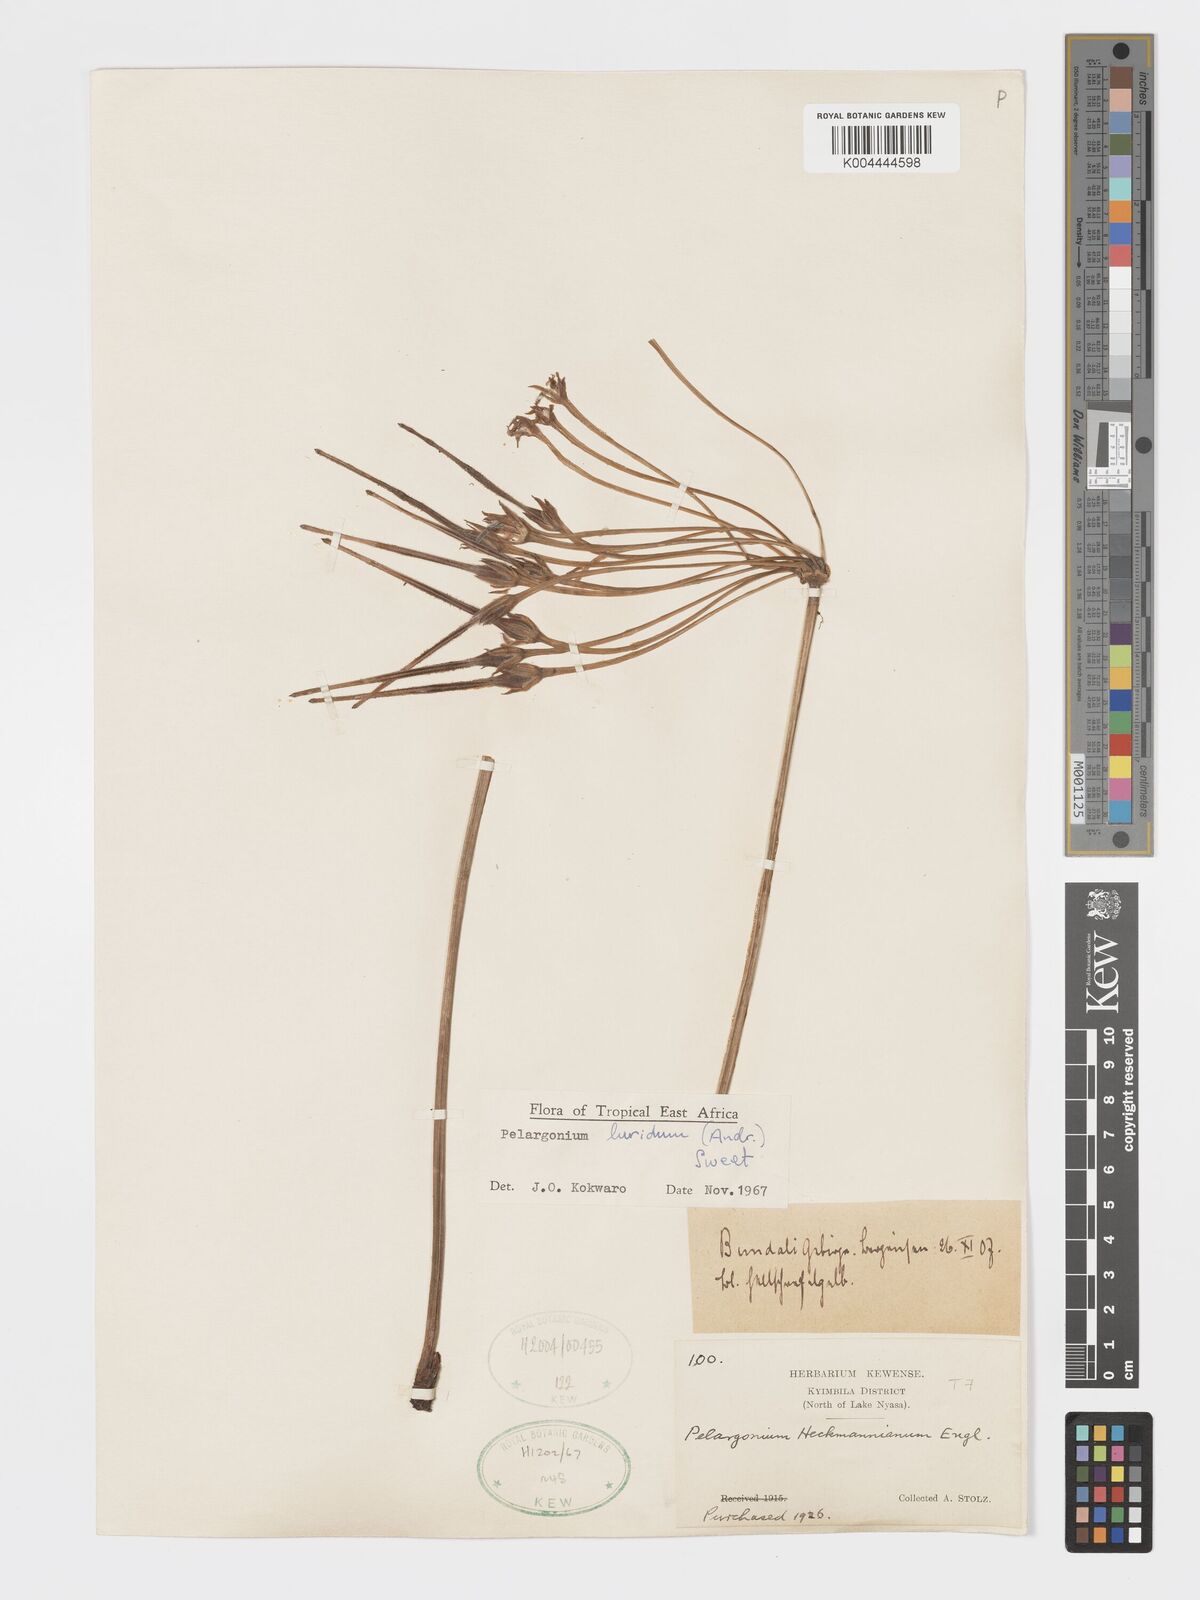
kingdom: Plantae
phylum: Tracheophyta
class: Magnoliopsida
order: Geraniales
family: Geraniaceae
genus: Pelargonium
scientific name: Pelargonium luridum
